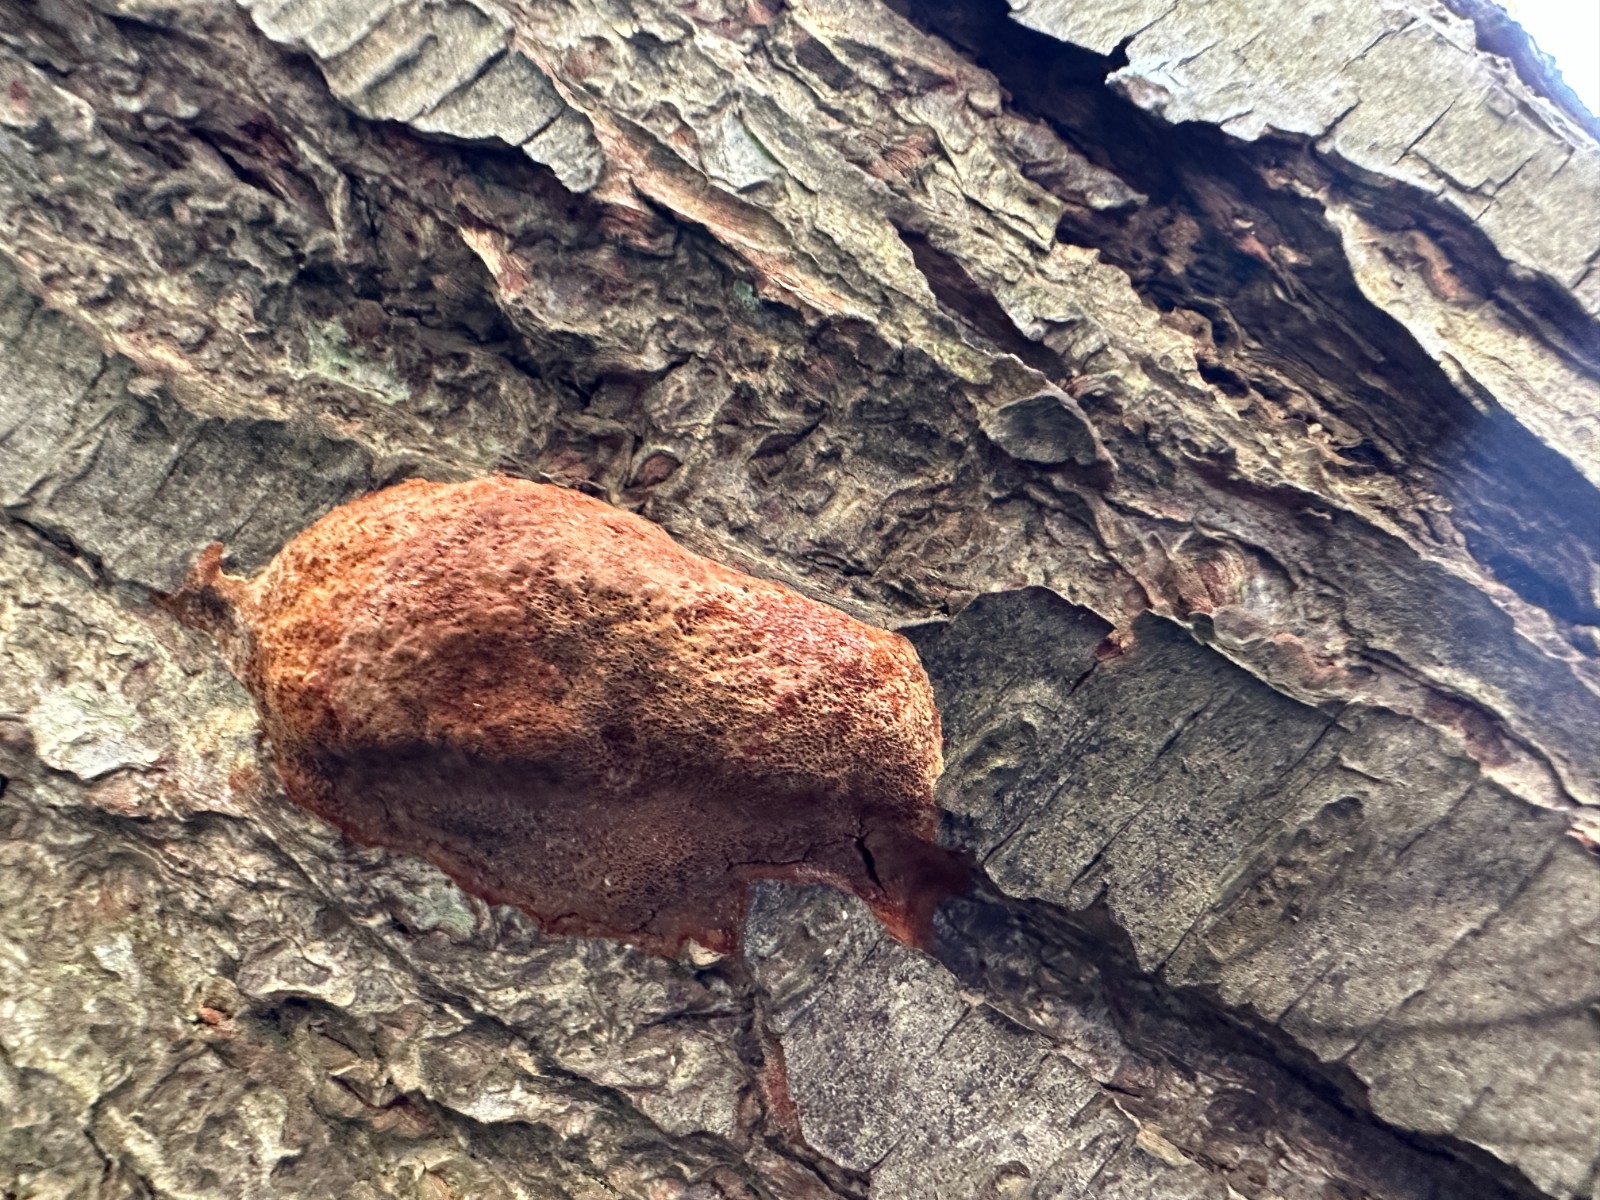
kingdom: Fungi
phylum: Basidiomycota
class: Agaricomycetes
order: Hymenochaetales
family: Hymenochaetaceae
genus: Phellinus
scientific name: Phellinus pomaceus
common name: blomme-ildporesvamp
